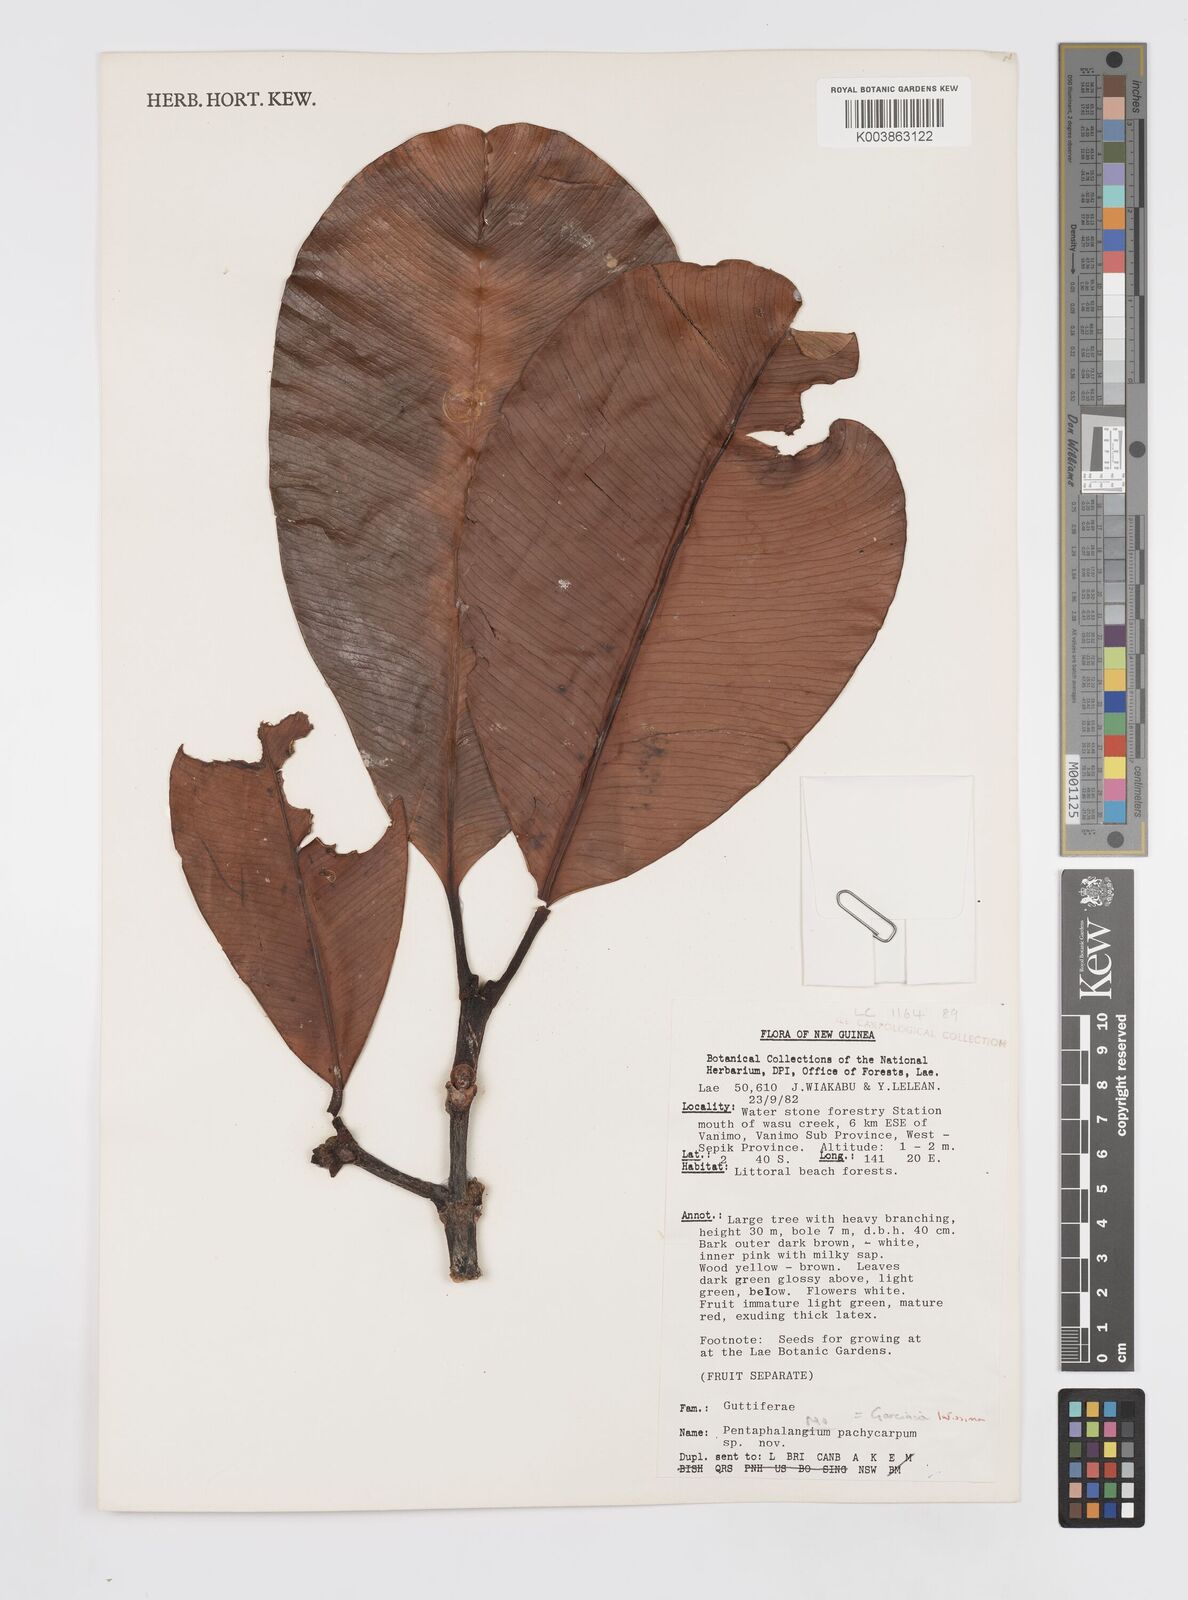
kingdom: Plantae
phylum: Tracheophyta
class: Magnoliopsida
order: Malpighiales
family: Clusiaceae
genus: Garcinia
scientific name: Garcinia latissima
